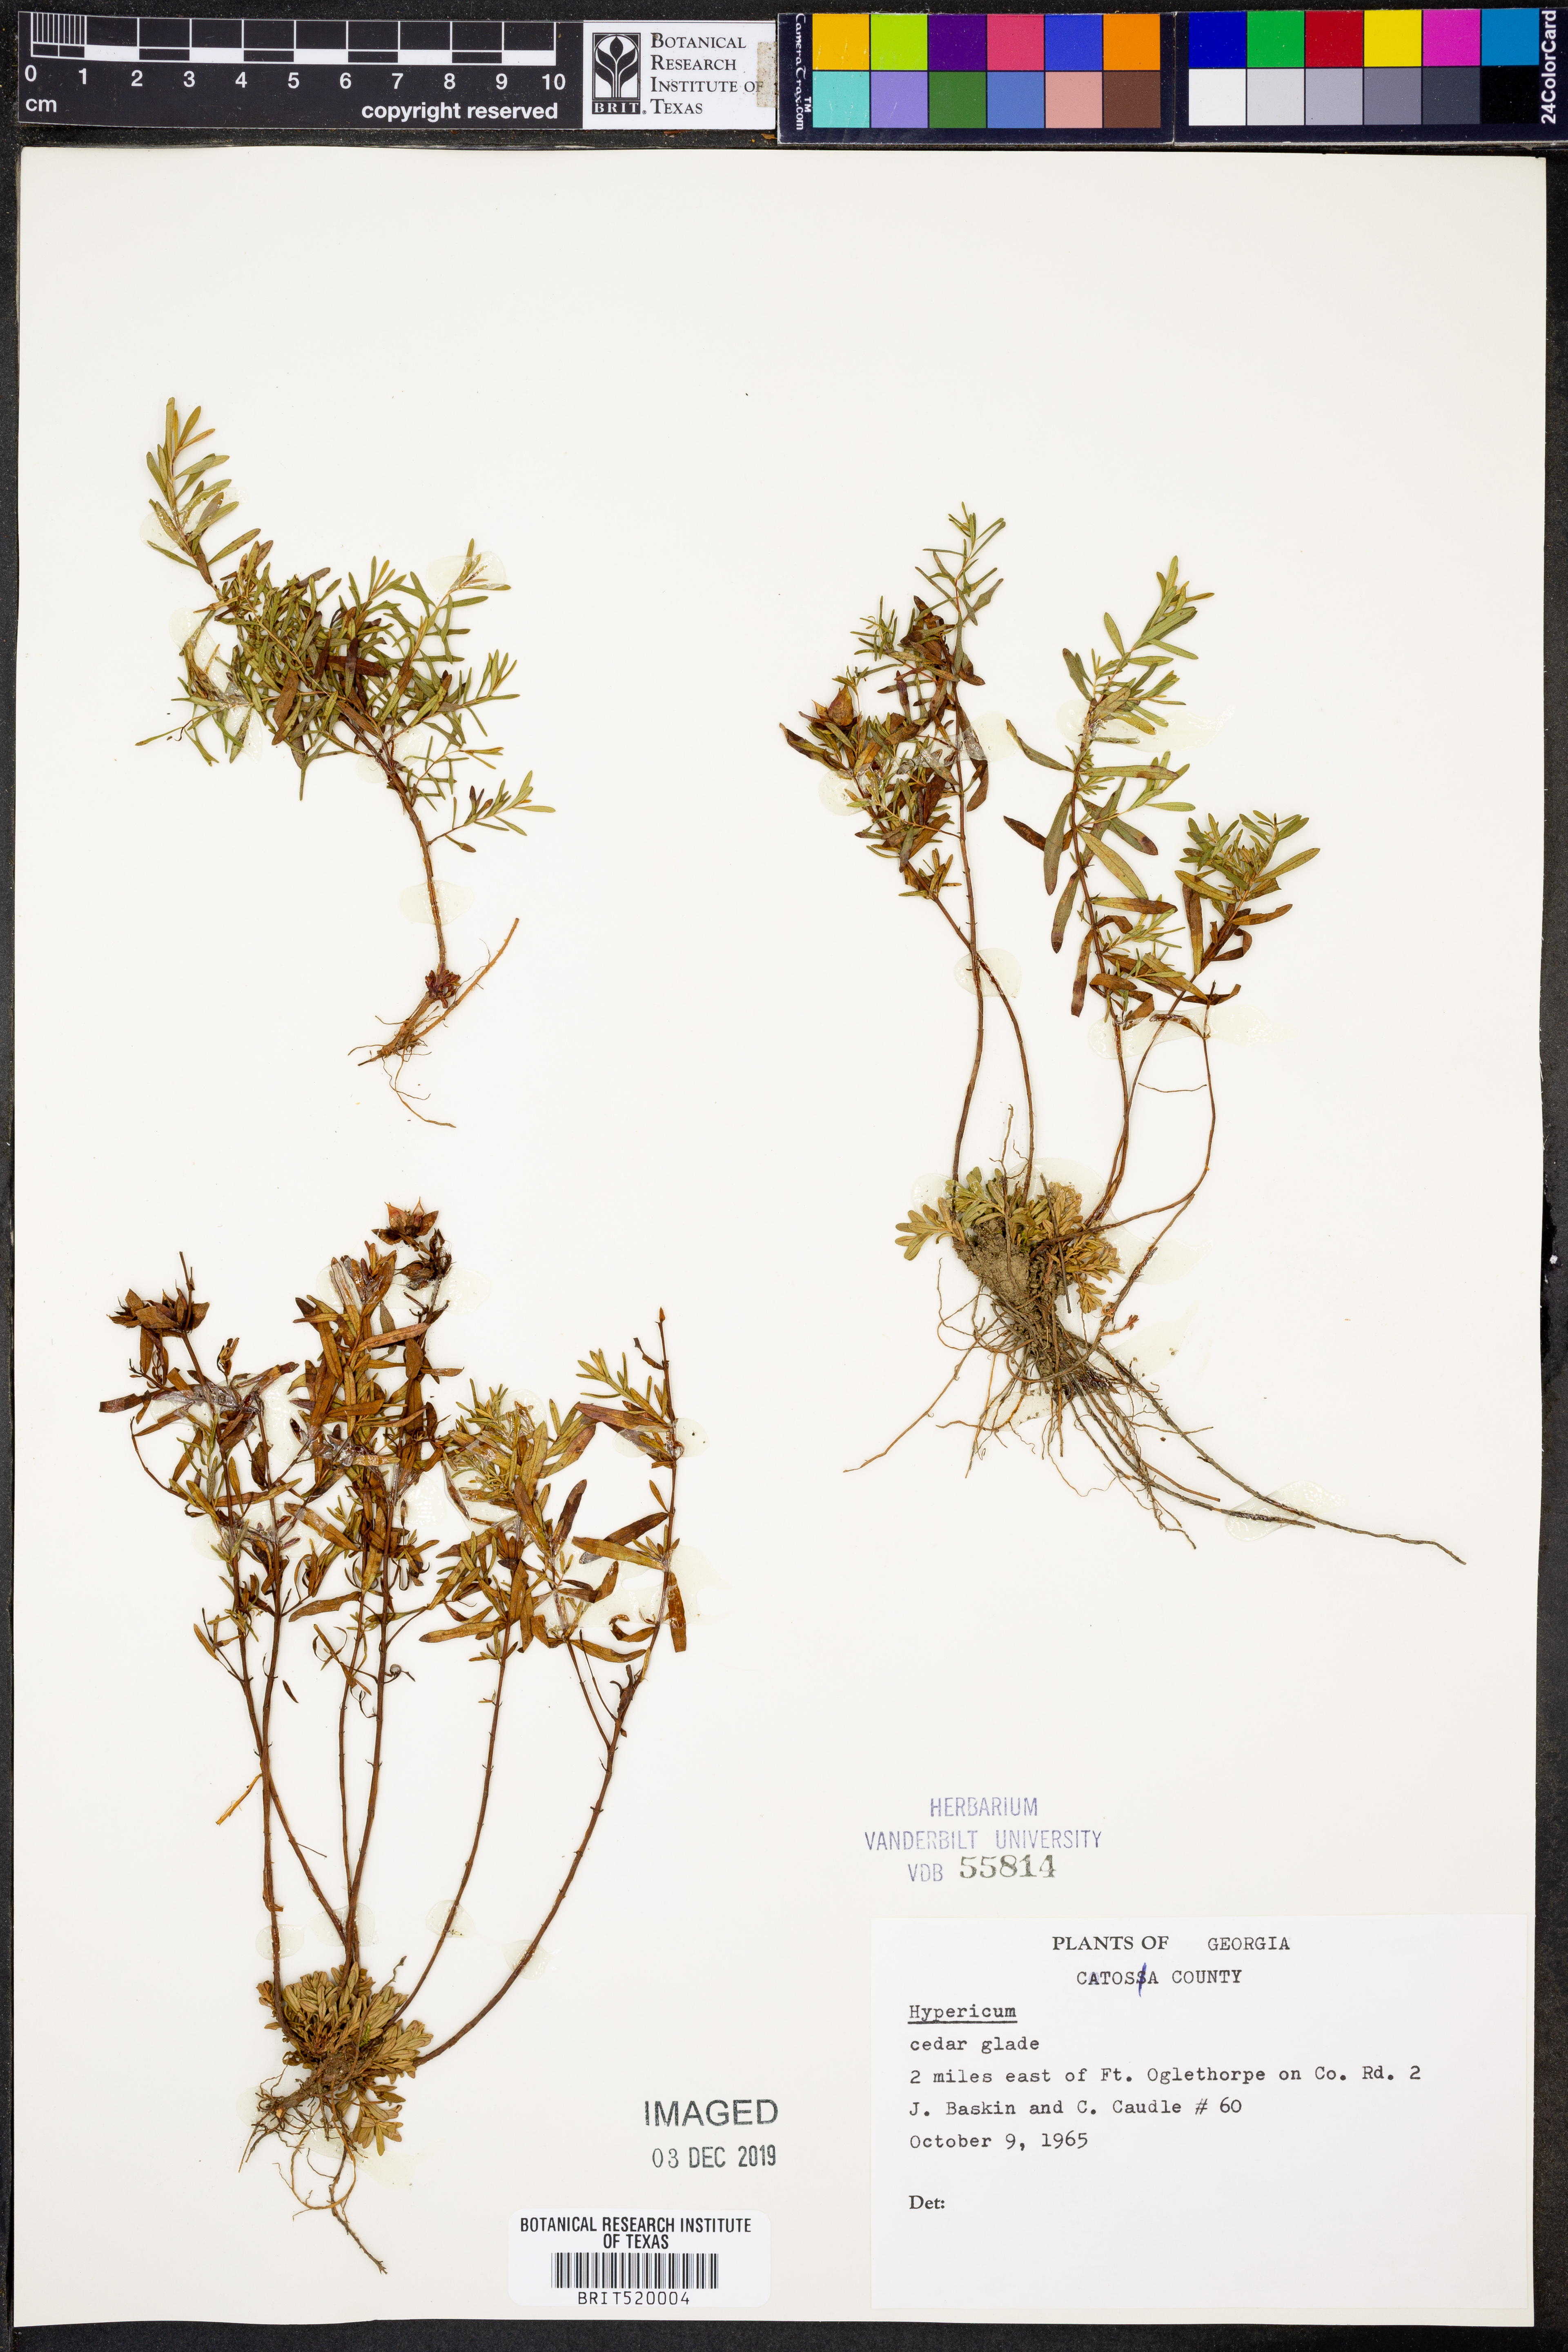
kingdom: Plantae
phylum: Tracheophyta
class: Magnoliopsida
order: Malpighiales
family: Hypericaceae
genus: Hypericum
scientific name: Hypericum
